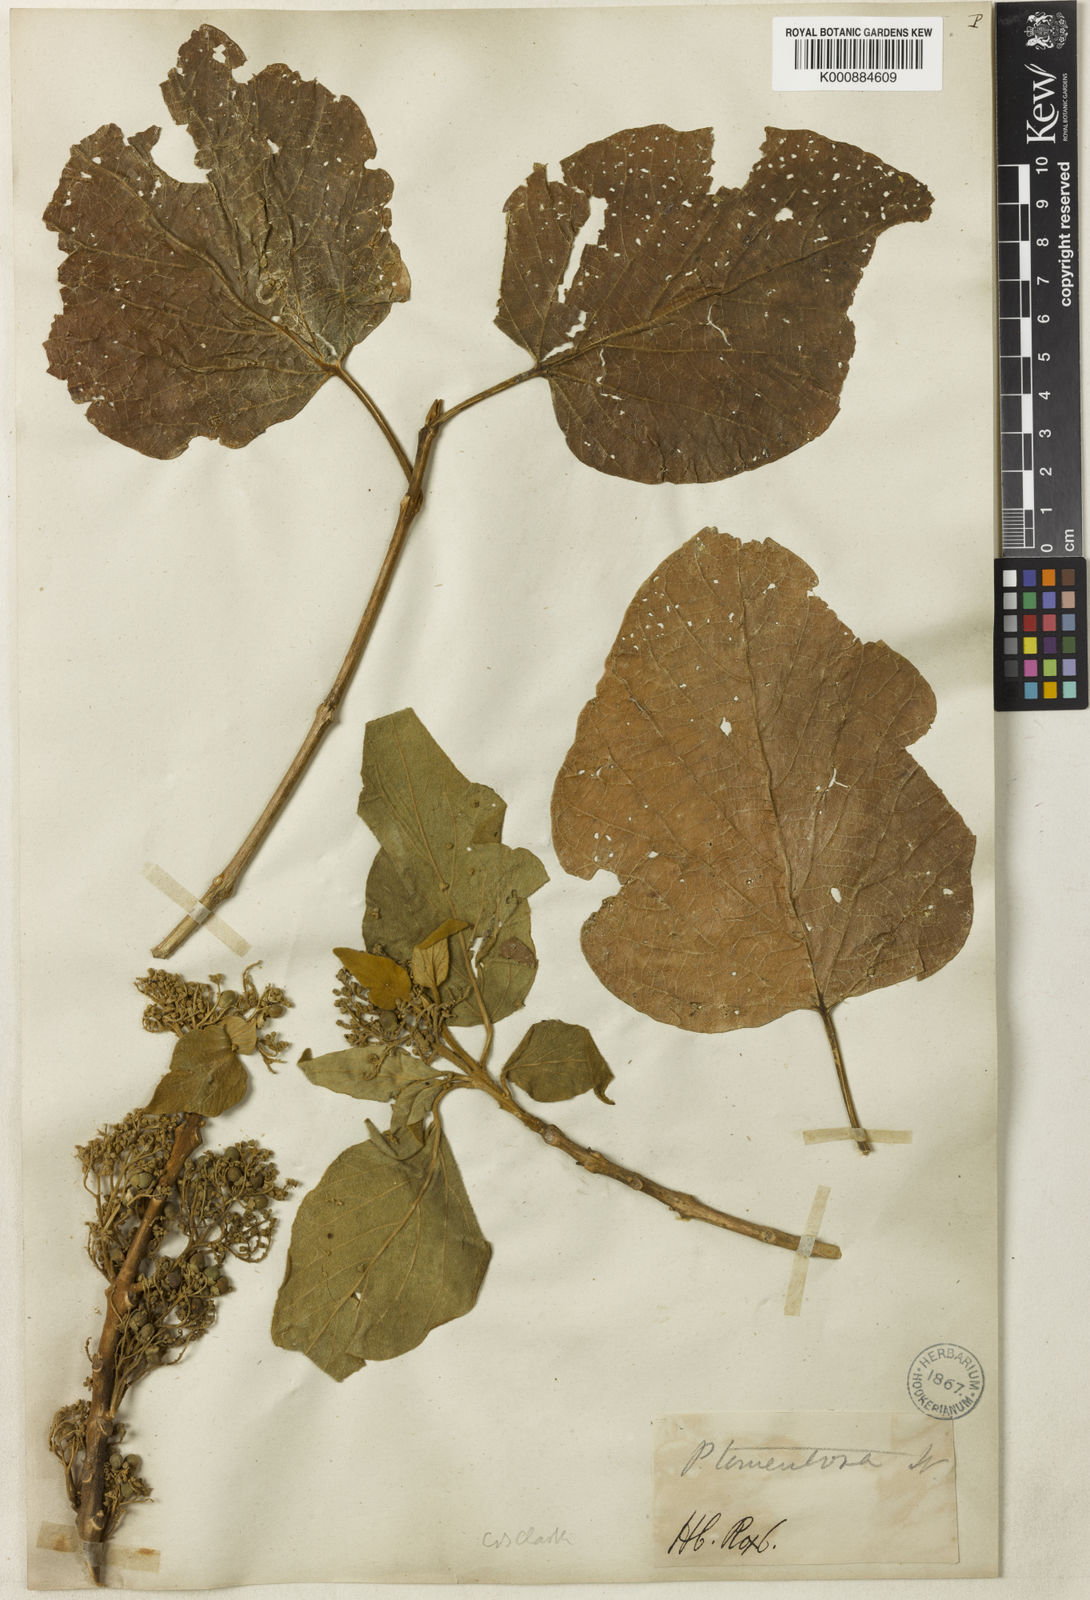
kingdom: Plantae
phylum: Tracheophyta
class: Magnoliopsida
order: Lamiales
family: Lamiaceae
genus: Premna
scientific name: Premna tomentosa
